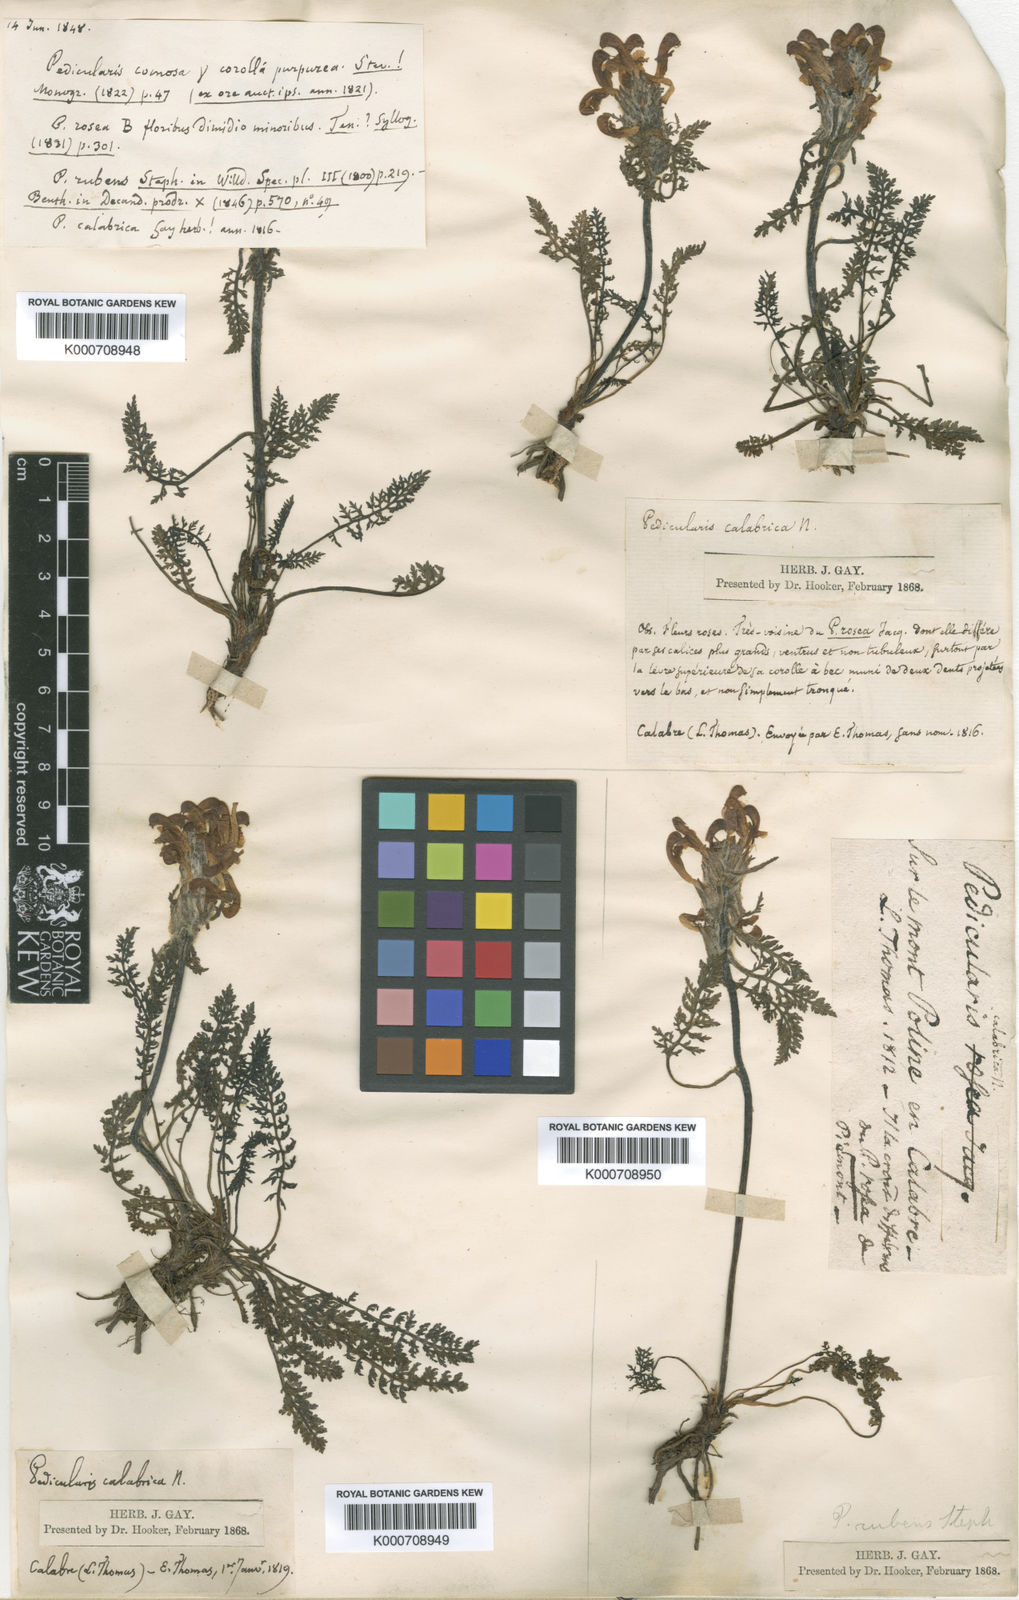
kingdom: Plantae
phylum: Tracheophyta
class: Magnoliopsida
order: Lamiales
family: Orobanchaceae
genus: Pedicularis
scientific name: Pedicularis rubens
